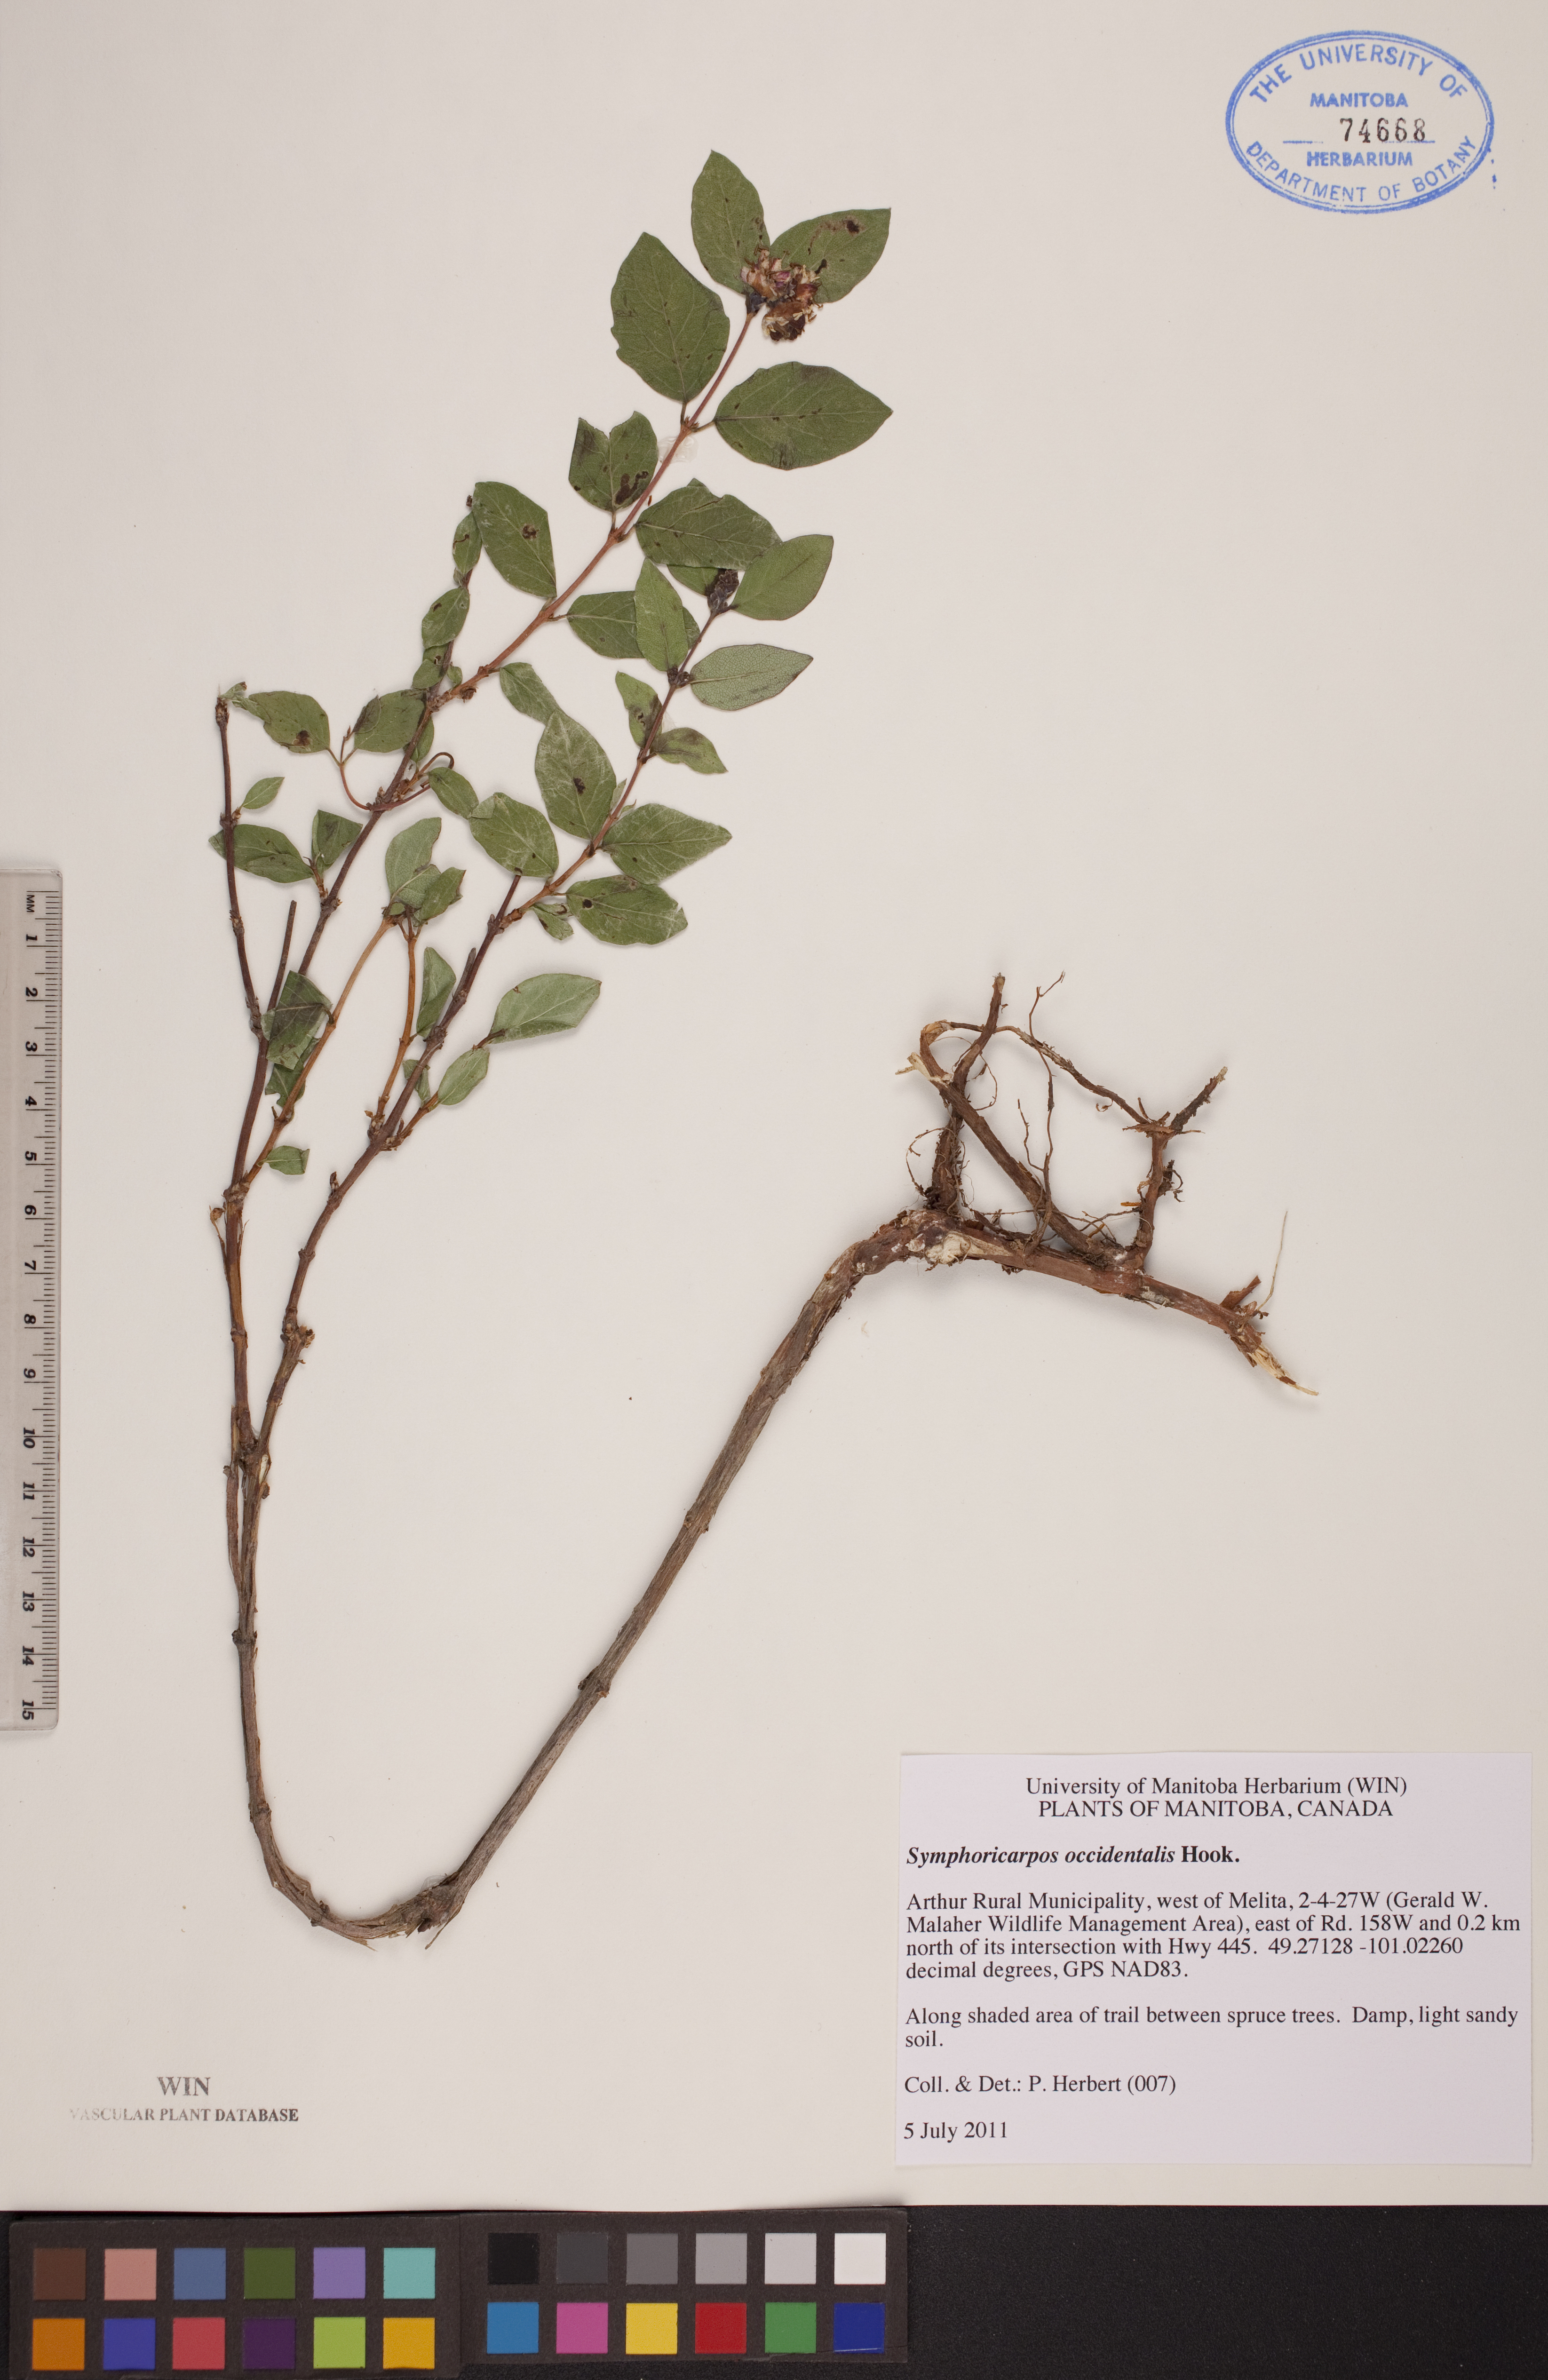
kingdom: Plantae
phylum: Tracheophyta
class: Magnoliopsida
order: Dipsacales
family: Caprifoliaceae
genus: Symphoricarpos
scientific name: Symphoricarpos occidentalis
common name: Wolfberry
